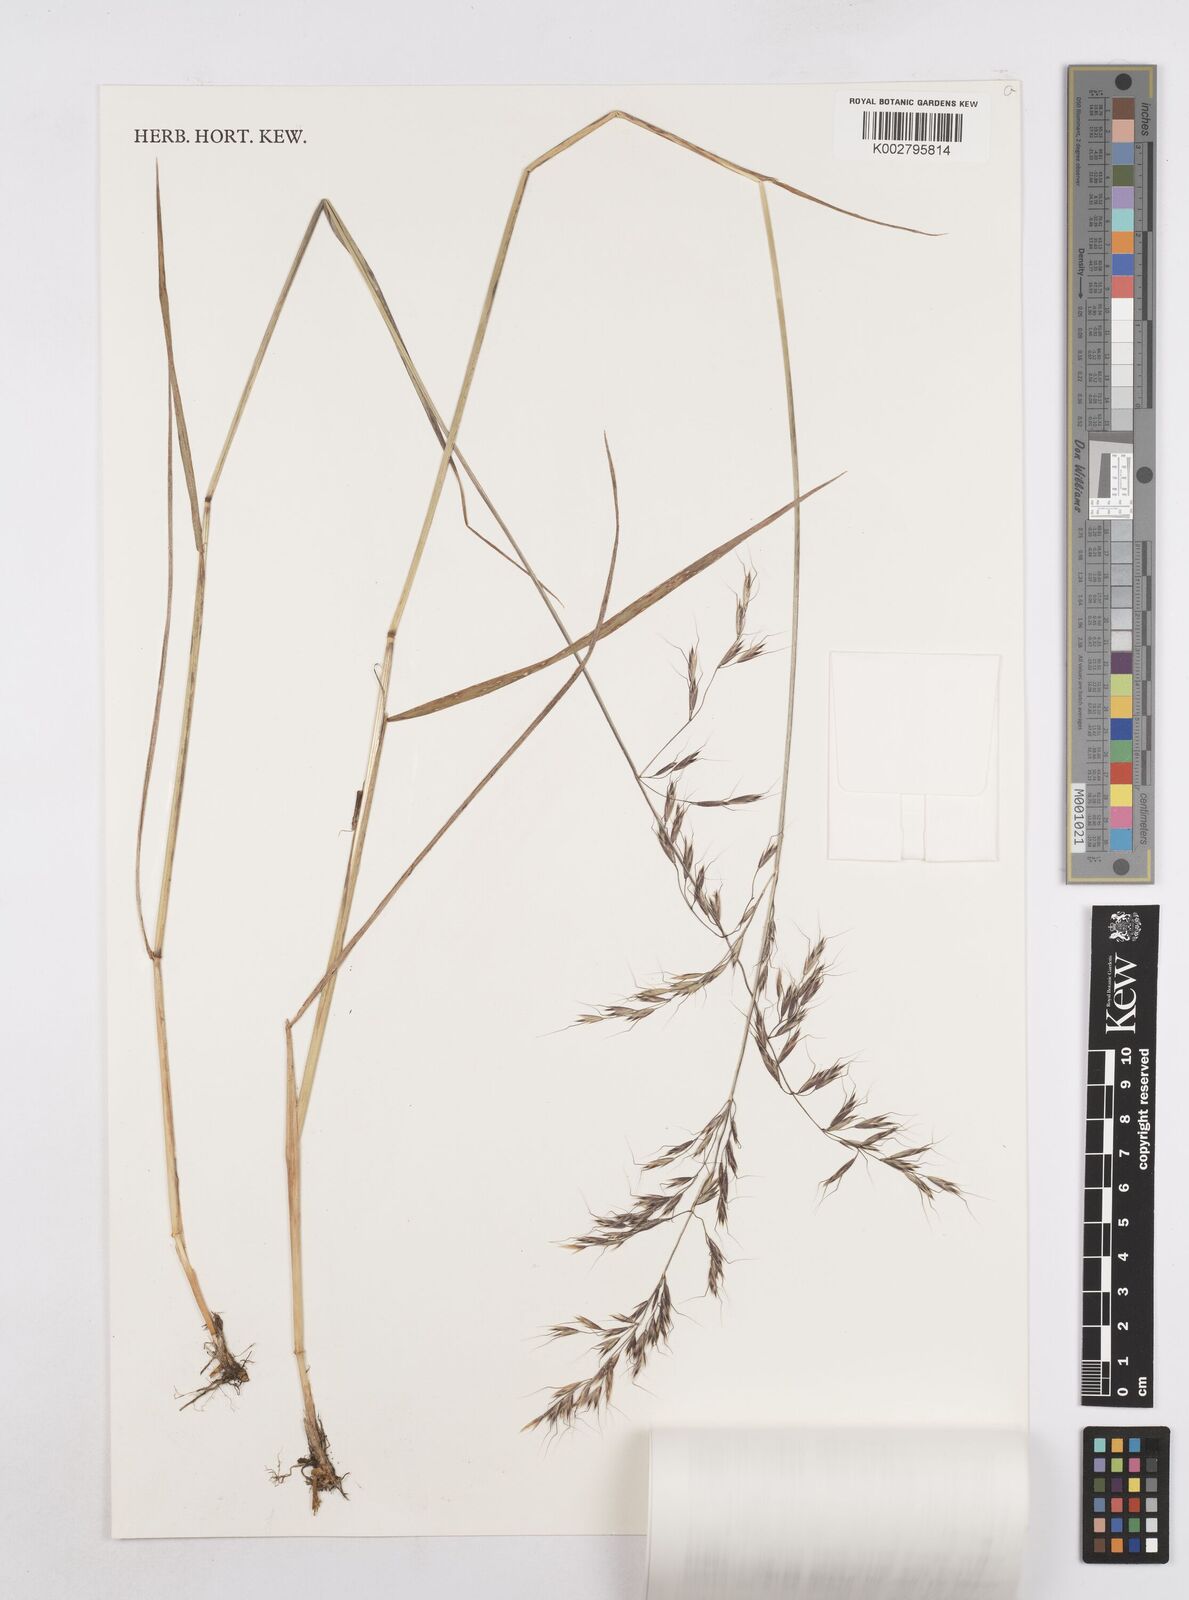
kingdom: Plantae
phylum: Tracheophyta
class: Liliopsida
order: Poales
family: Poaceae
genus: Trisetopsis
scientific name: Trisetopsis elongata
